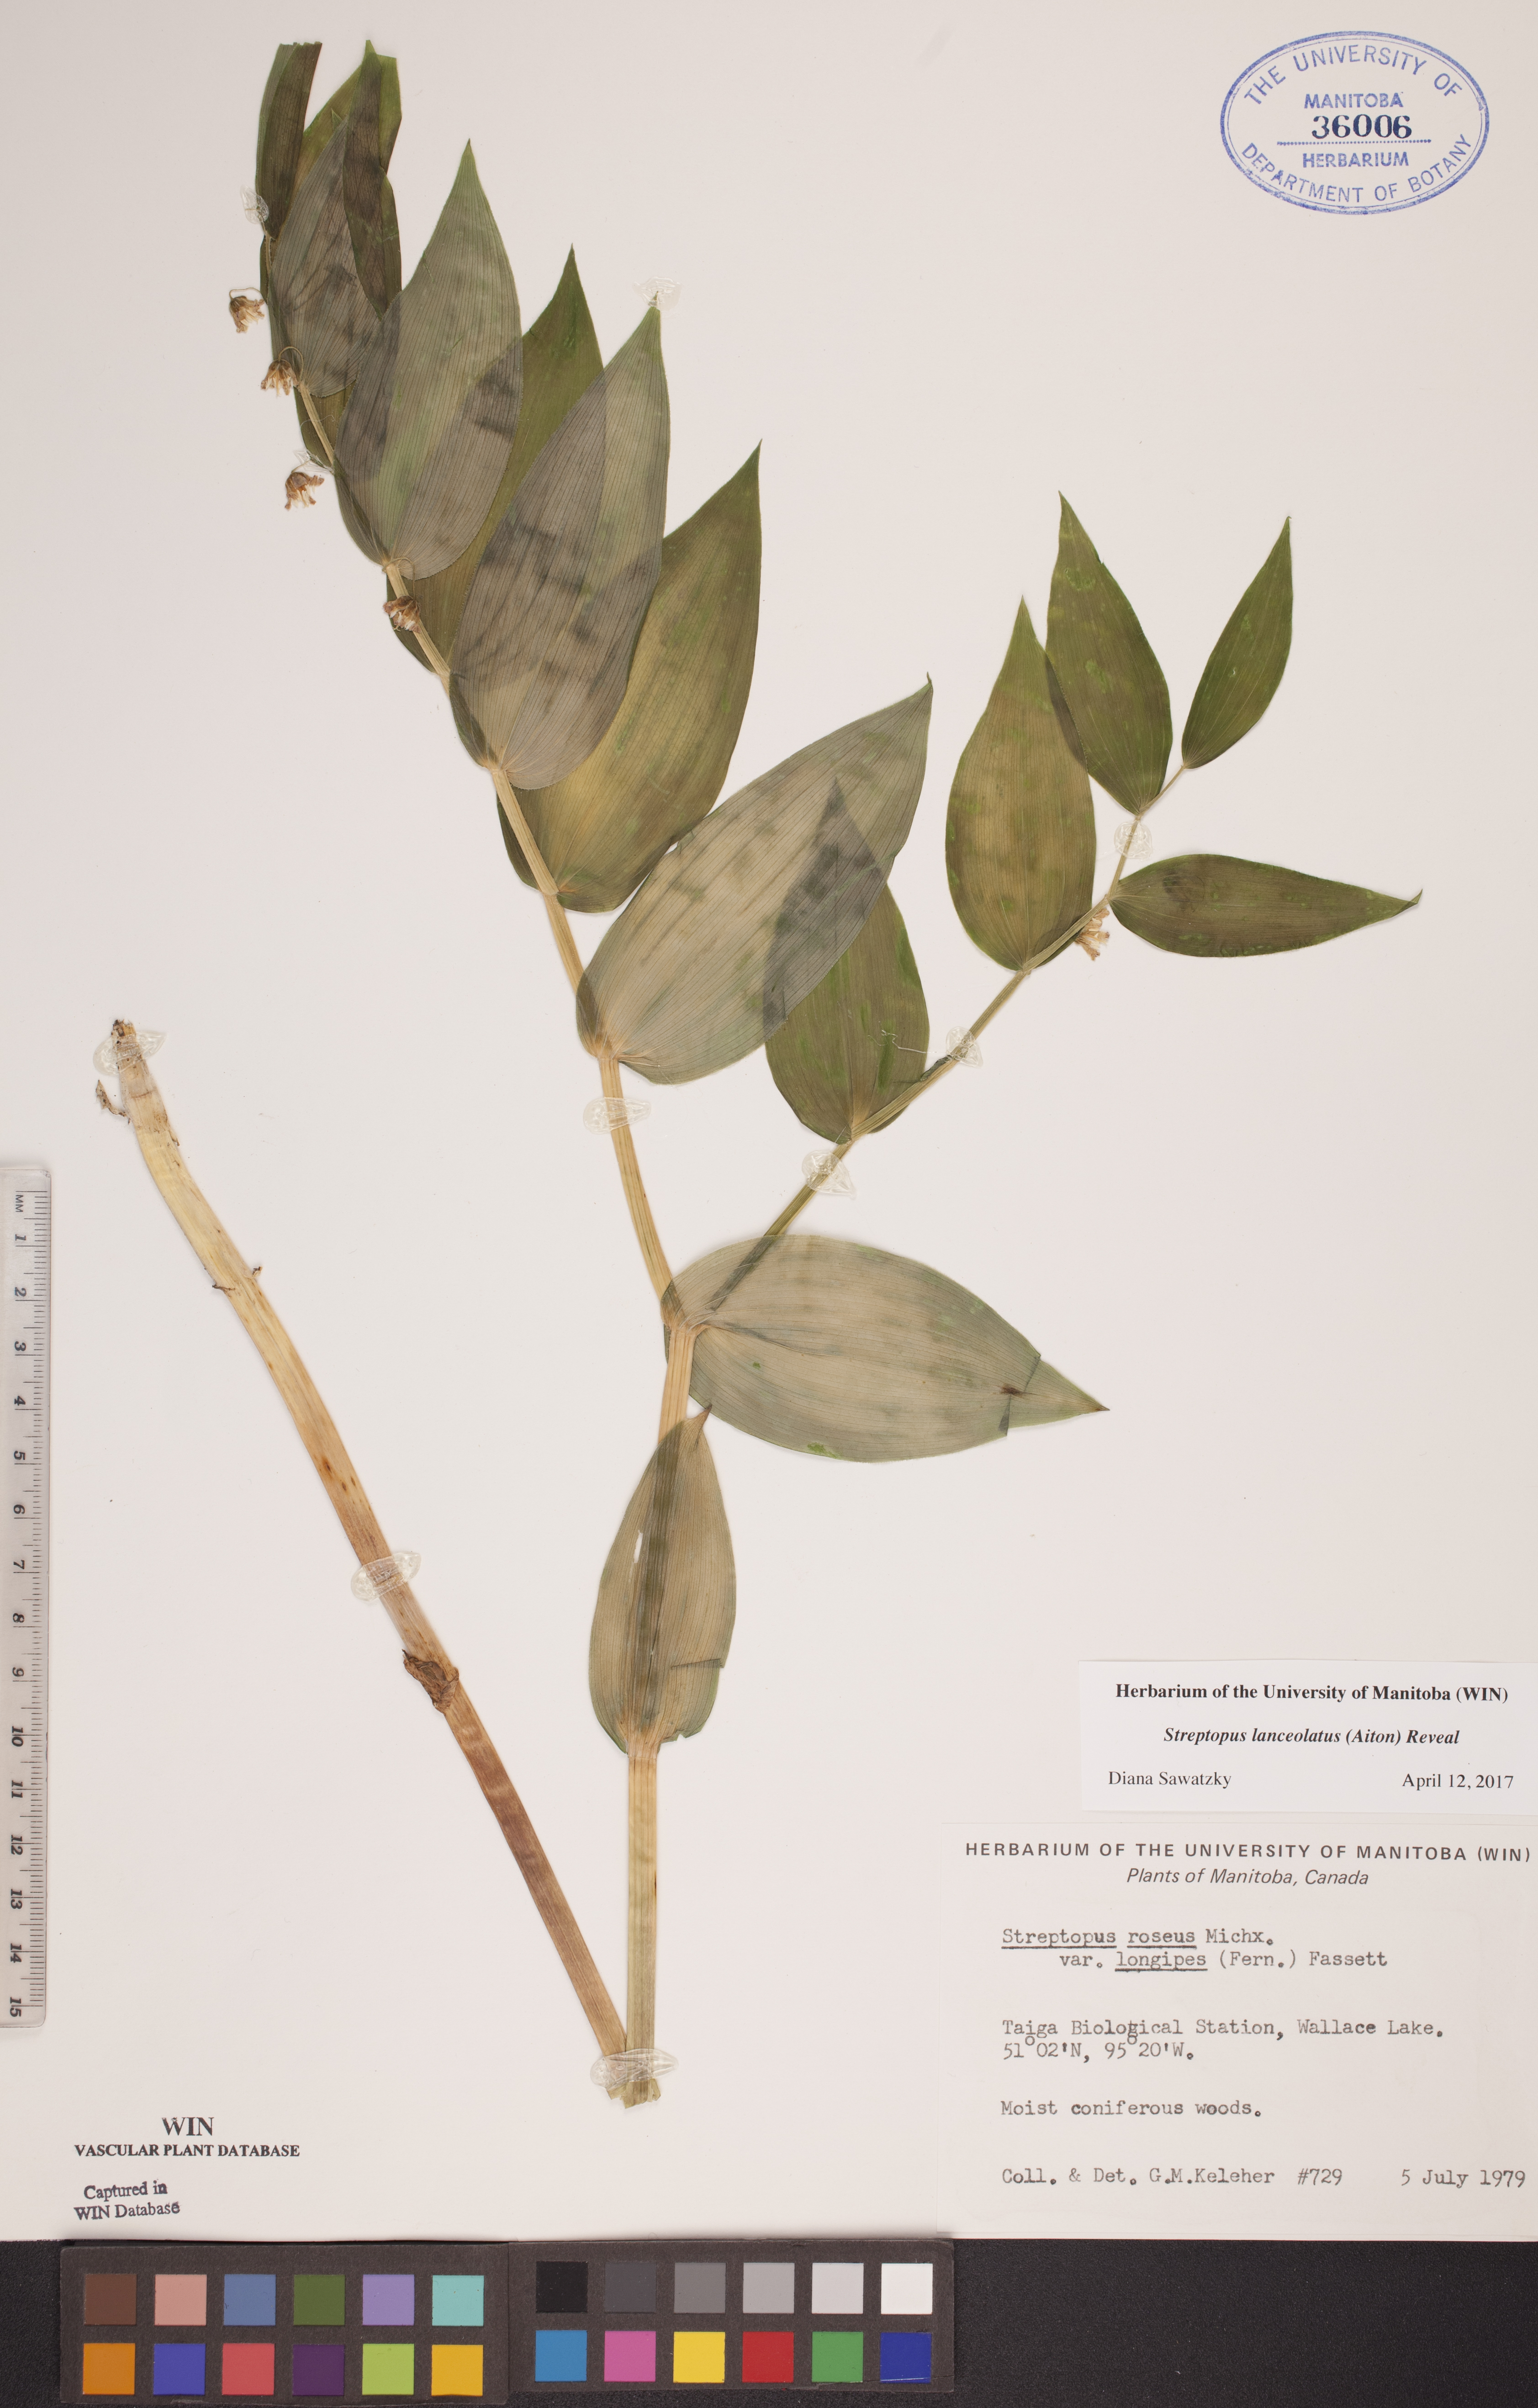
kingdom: Plantae
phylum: Tracheophyta
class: Liliopsida
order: Liliales
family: Liliaceae
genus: Streptopus
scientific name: Streptopus lanceolatus
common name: Rose mandarin
